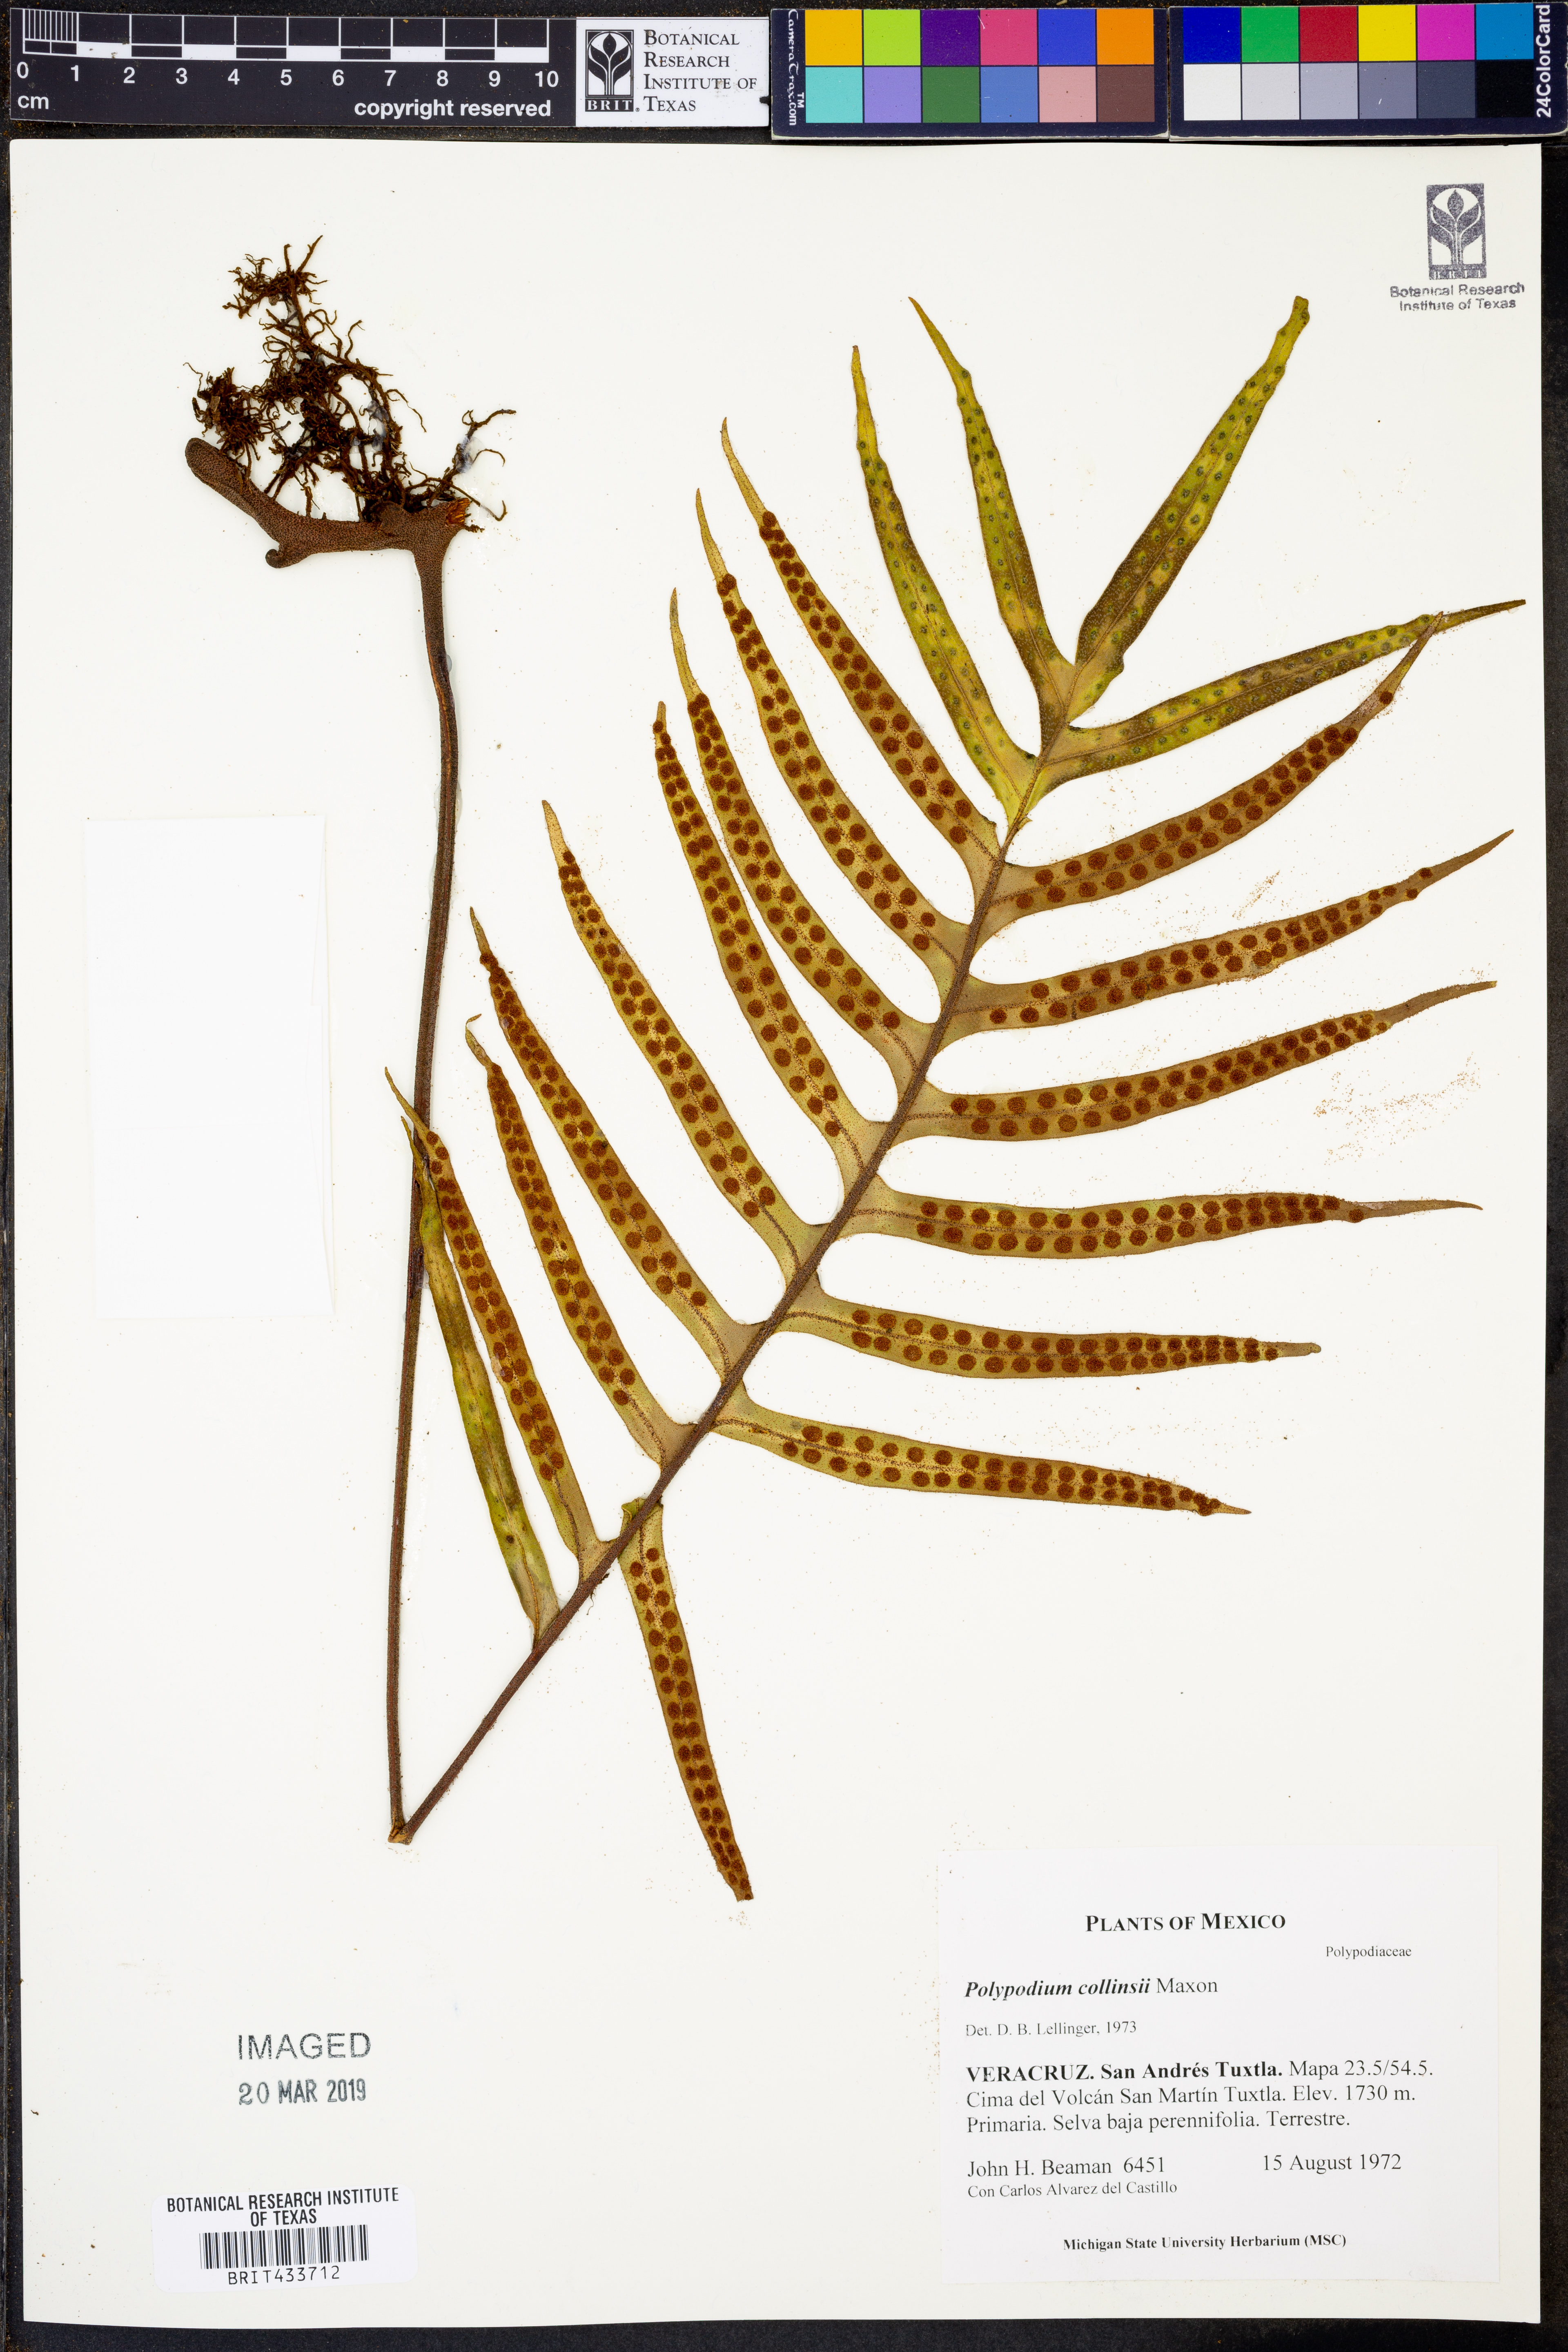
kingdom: Plantae
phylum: Tracheophyta
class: Polypodiopsida
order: Polypodiales
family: Polypodiaceae
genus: Pleopeltis
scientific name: Pleopeltis collinsii
